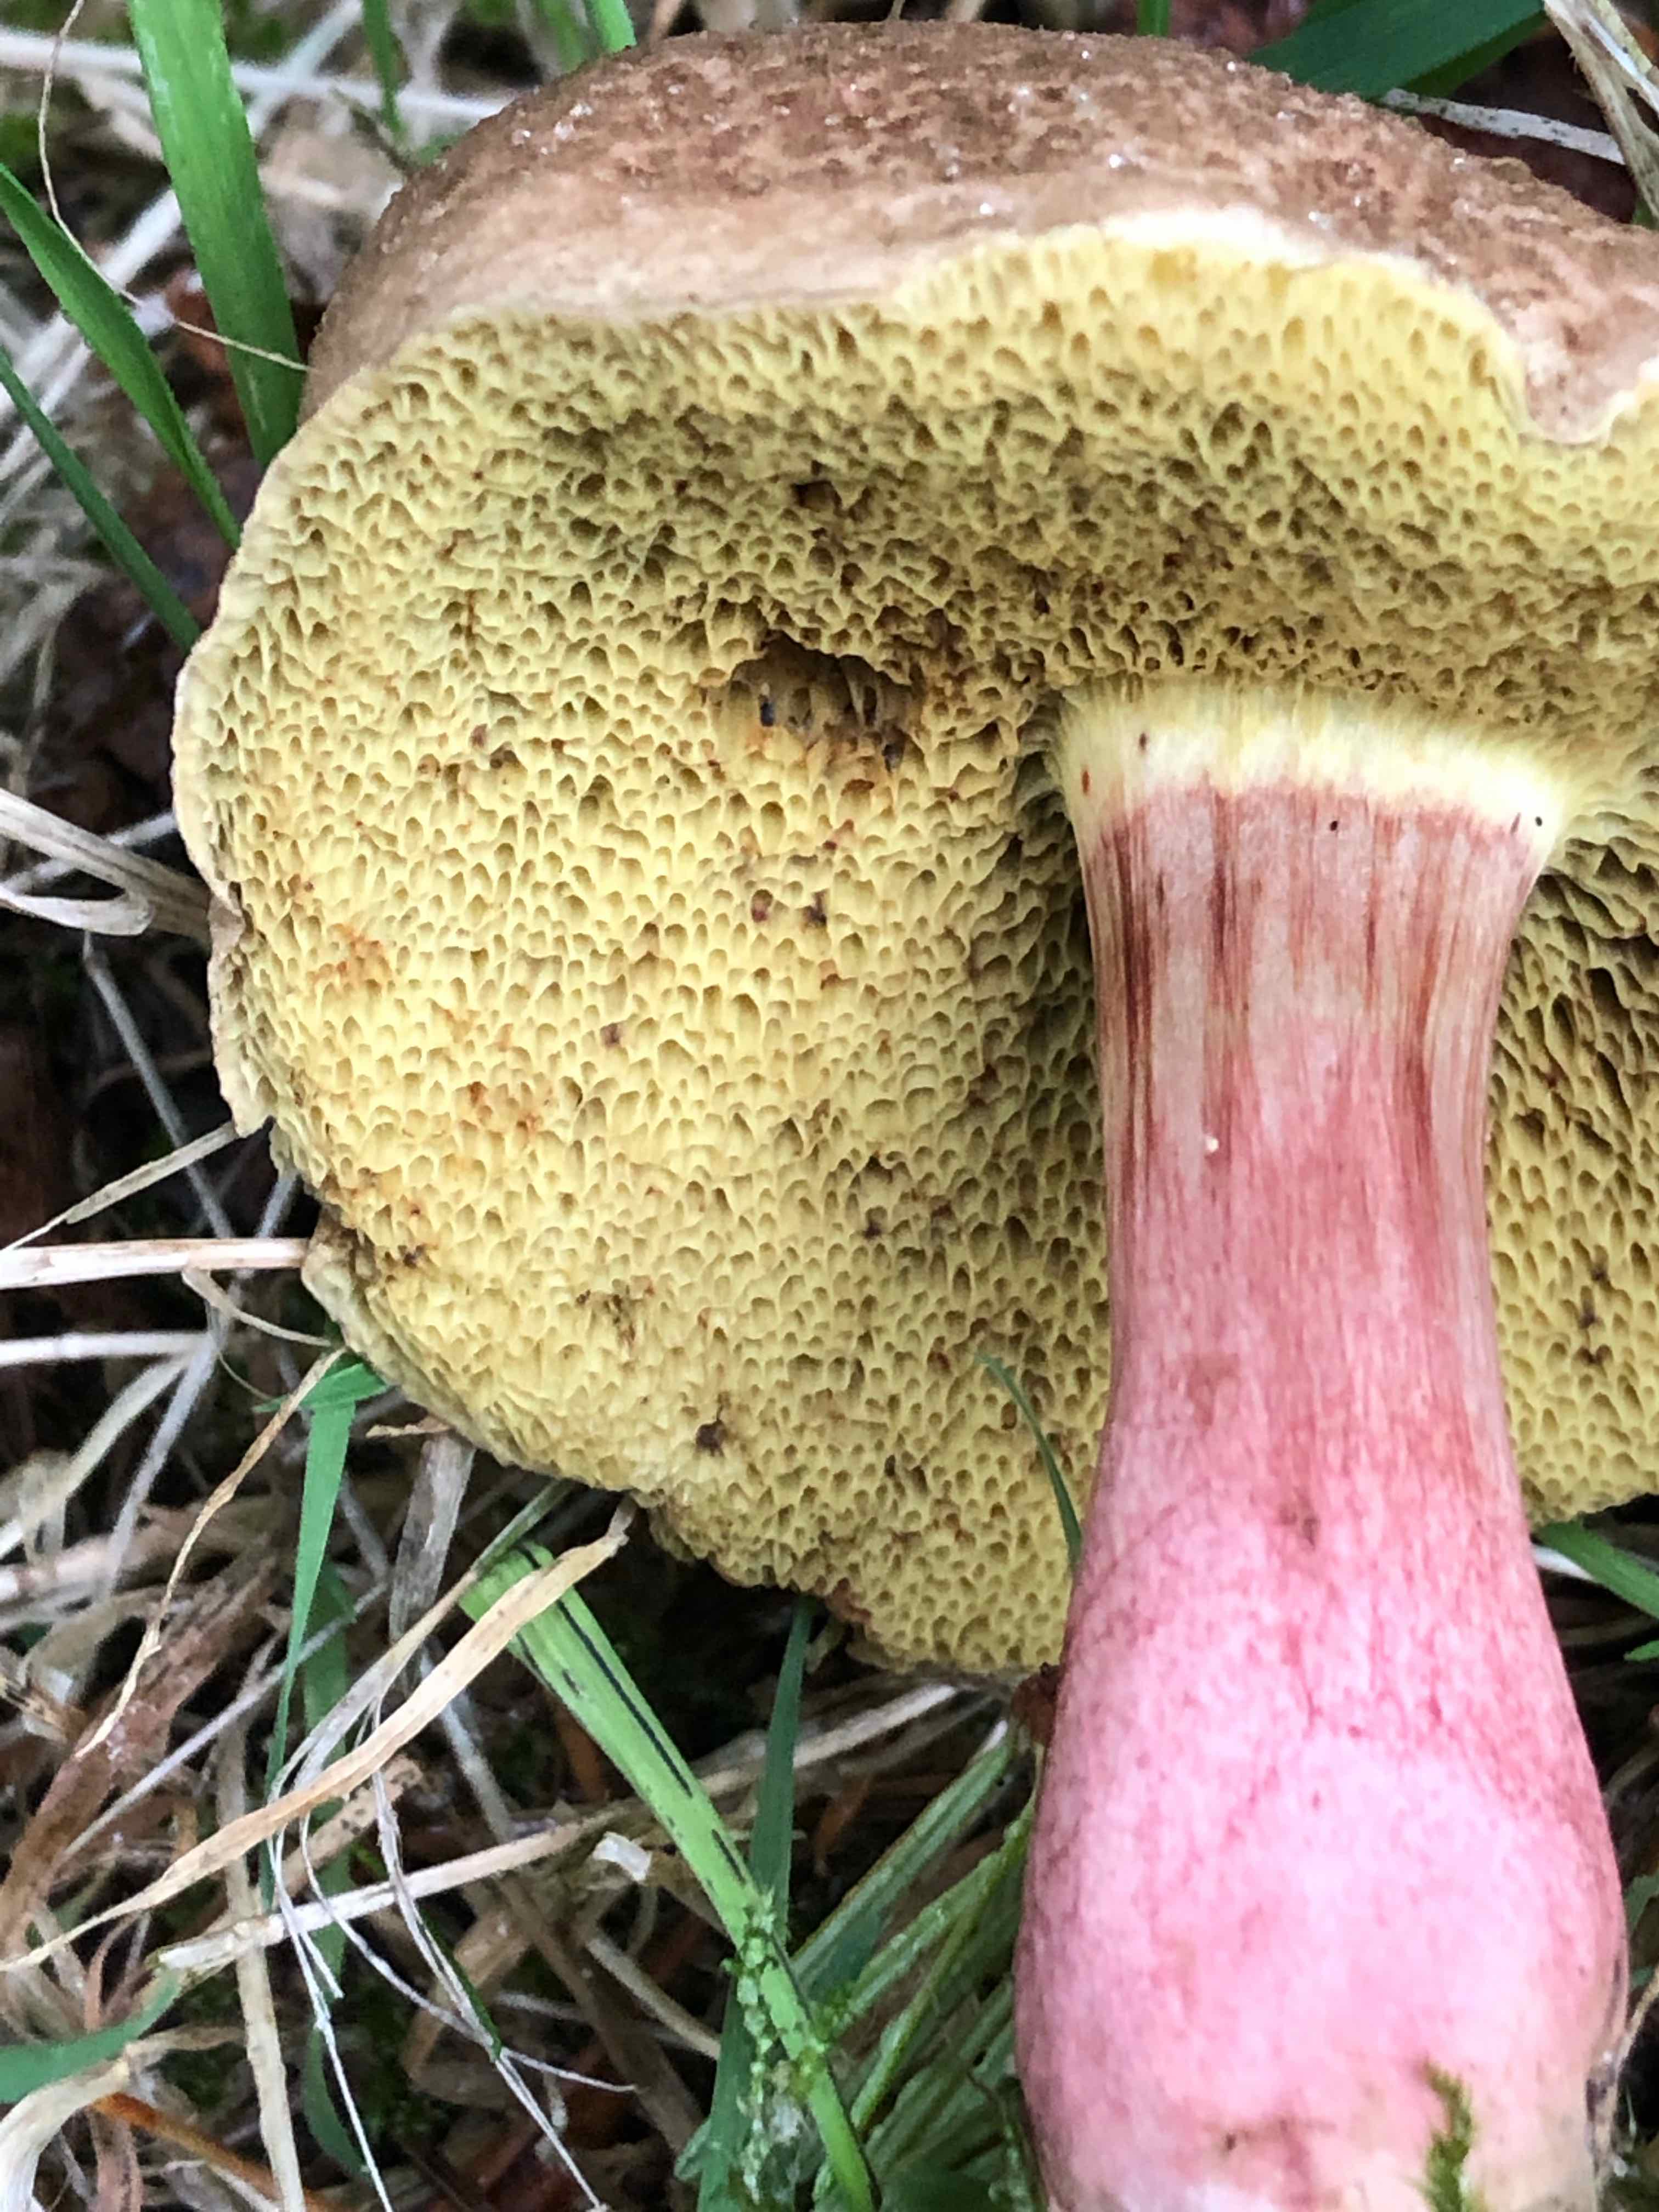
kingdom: Fungi
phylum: Basidiomycota
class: Agaricomycetes
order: Boletales
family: Boletaceae
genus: Xerocomellus
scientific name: Xerocomellus chrysenteron
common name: rødsprukken rørhat
